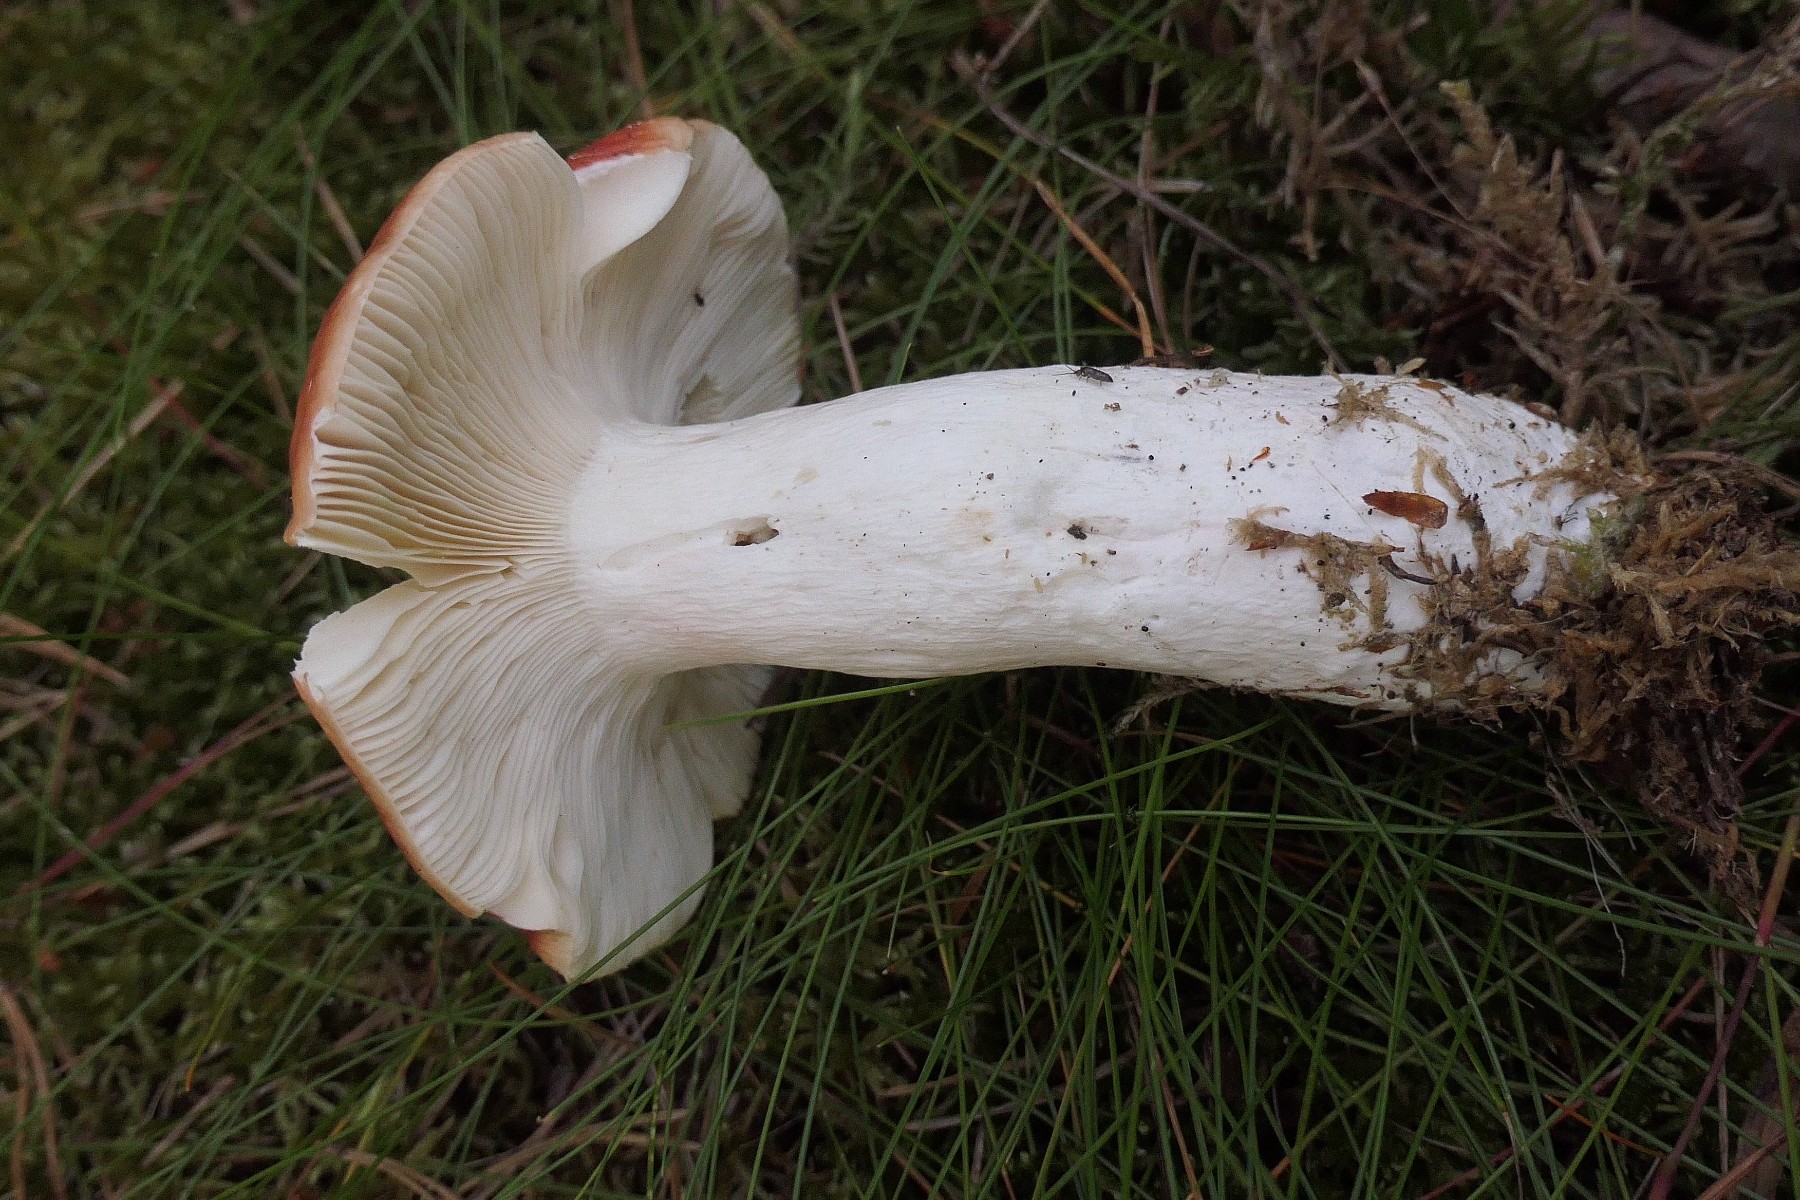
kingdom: Fungi
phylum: Basidiomycota
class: Agaricomycetes
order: Russulales
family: Russulaceae
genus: Russula
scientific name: Russula paludosa
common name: prægtig skørhat
